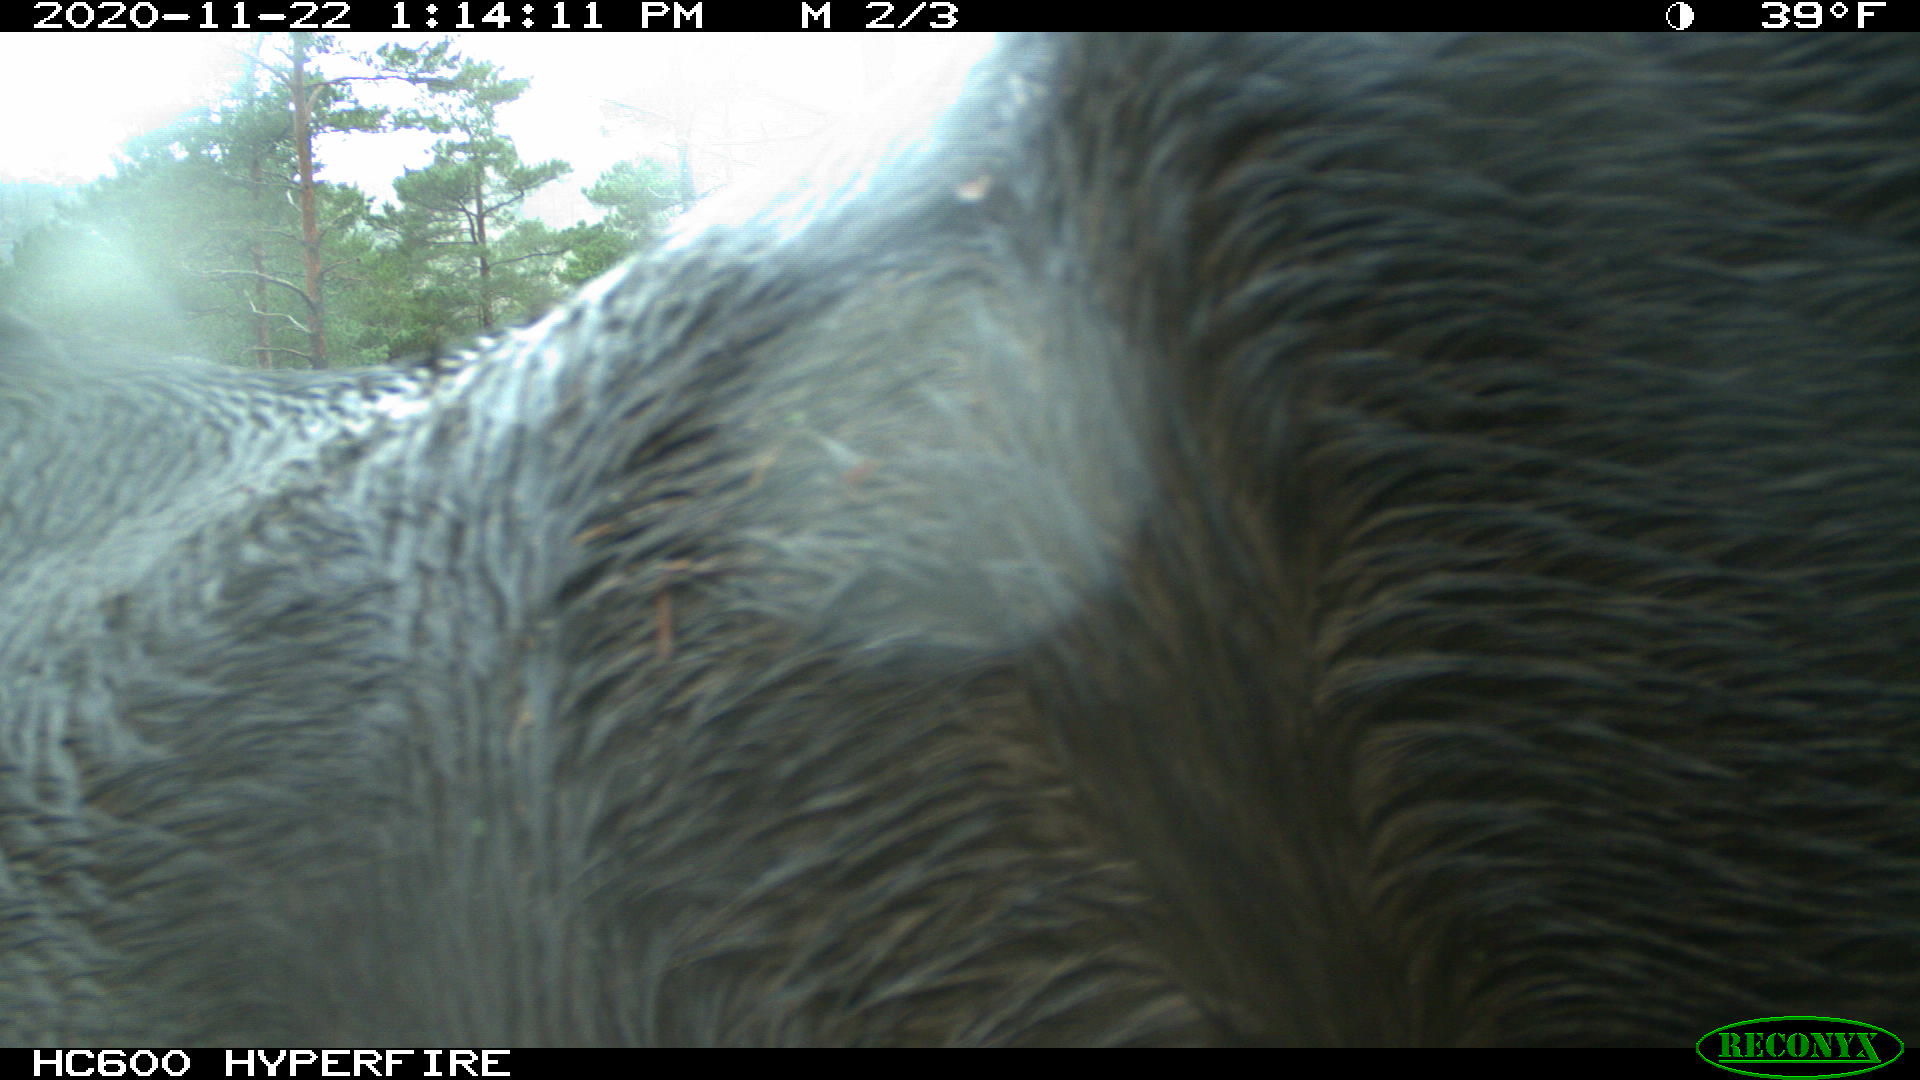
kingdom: Animalia
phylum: Chordata
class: Mammalia
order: Perissodactyla
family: Equidae
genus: Equus
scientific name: Equus caballus
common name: Horse
